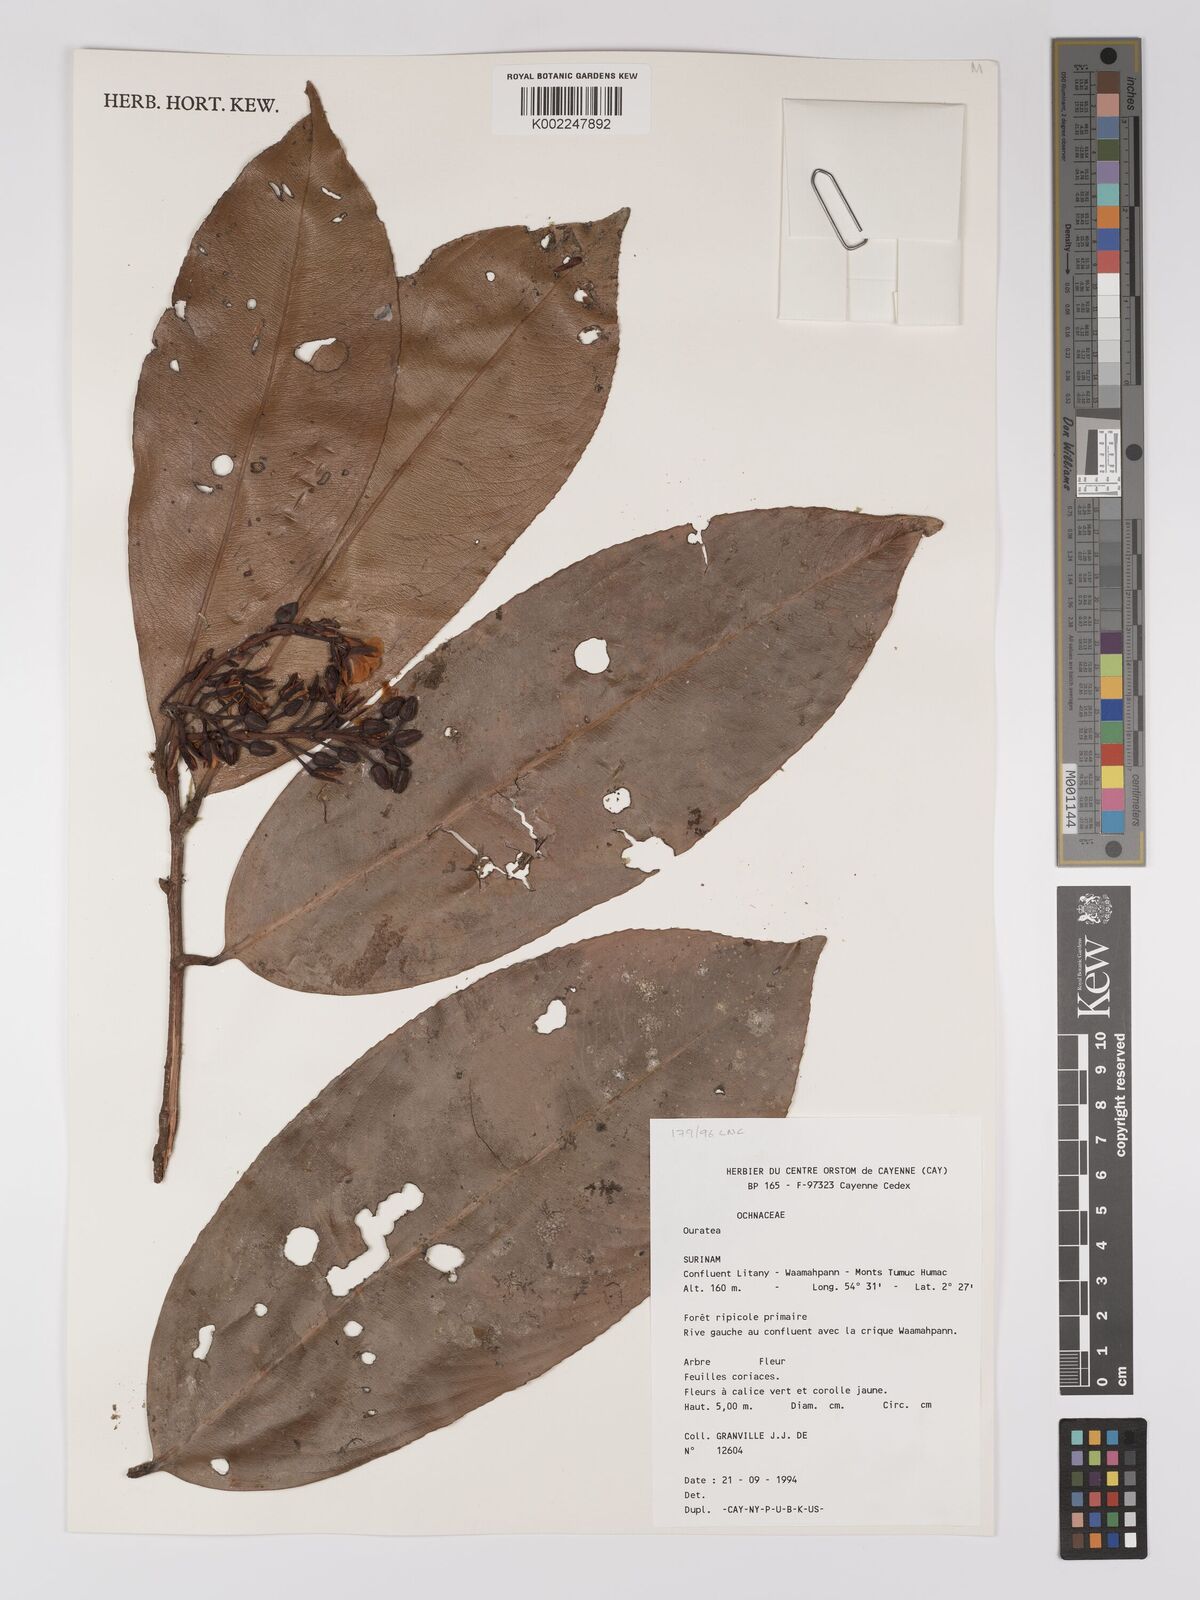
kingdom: Plantae
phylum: Tracheophyta
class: Magnoliopsida
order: Malpighiales
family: Ochnaceae
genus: Ouratea
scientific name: Ouratea
